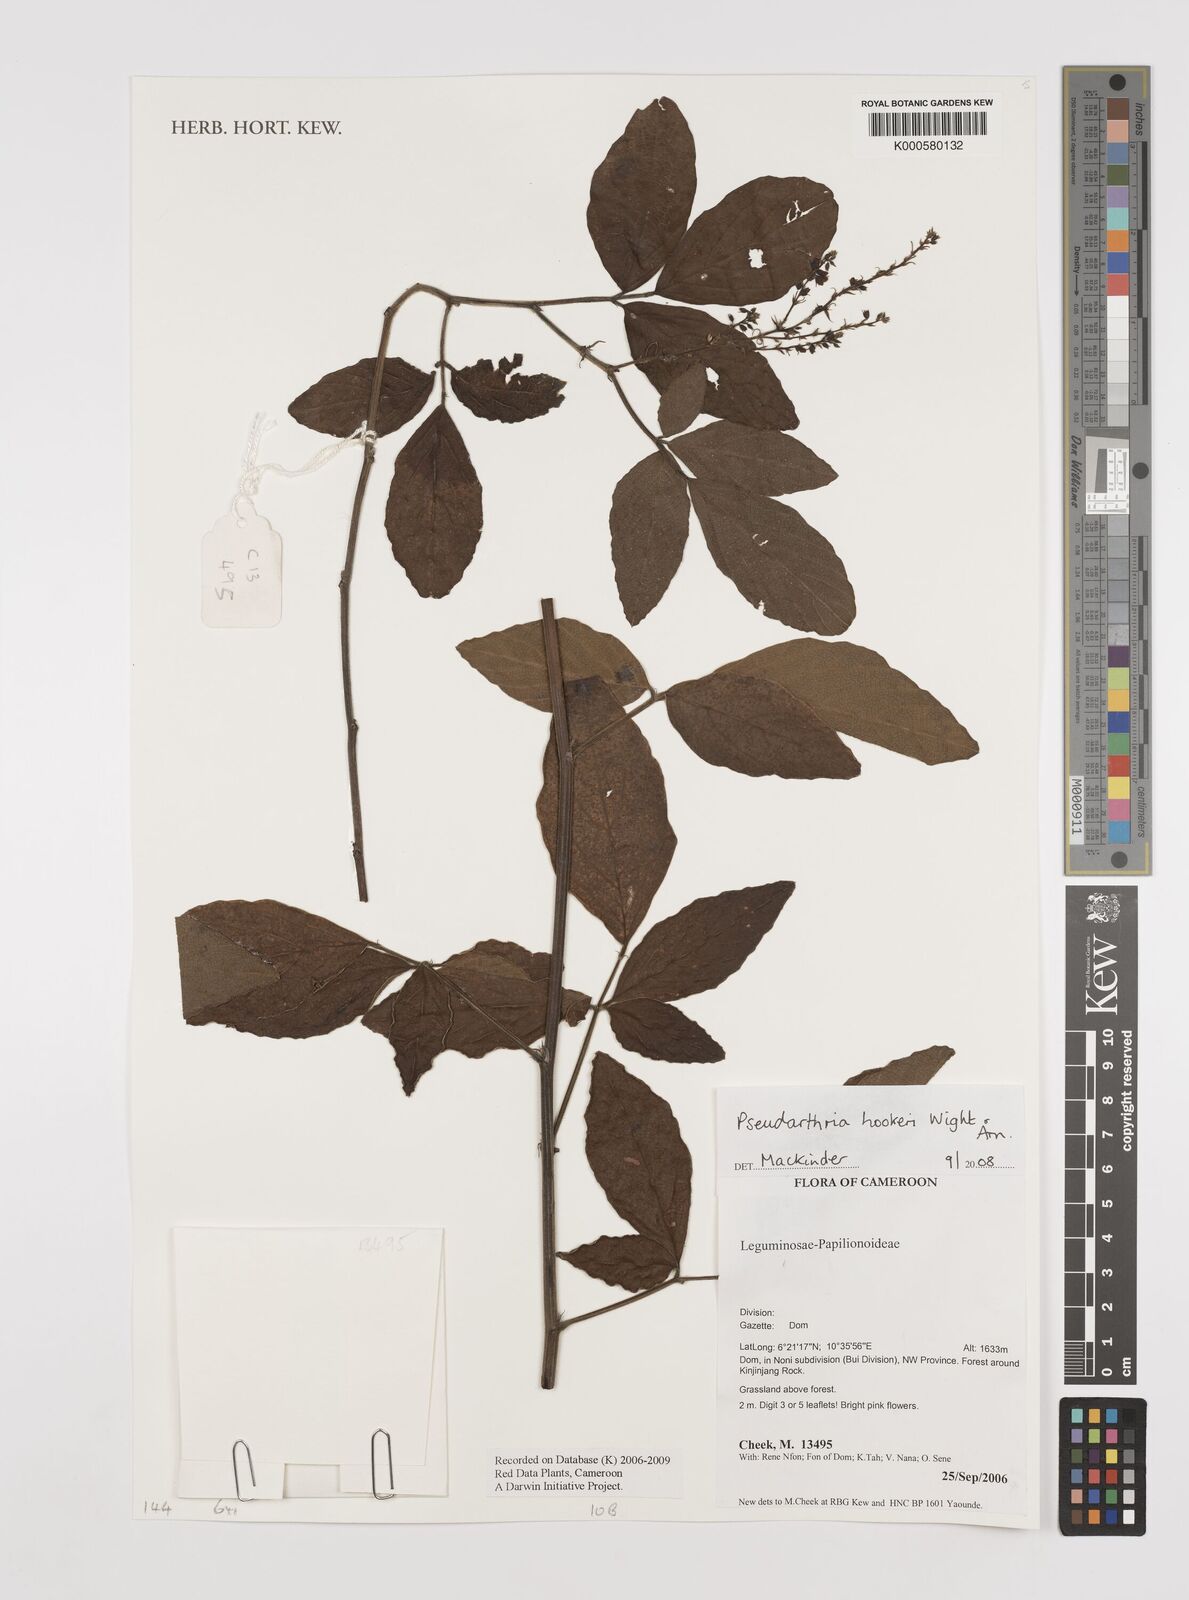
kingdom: Plantae
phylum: Tracheophyta
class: Magnoliopsida
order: Fabales
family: Fabaceae
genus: Pseudarthria
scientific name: Pseudarthria hookeri
